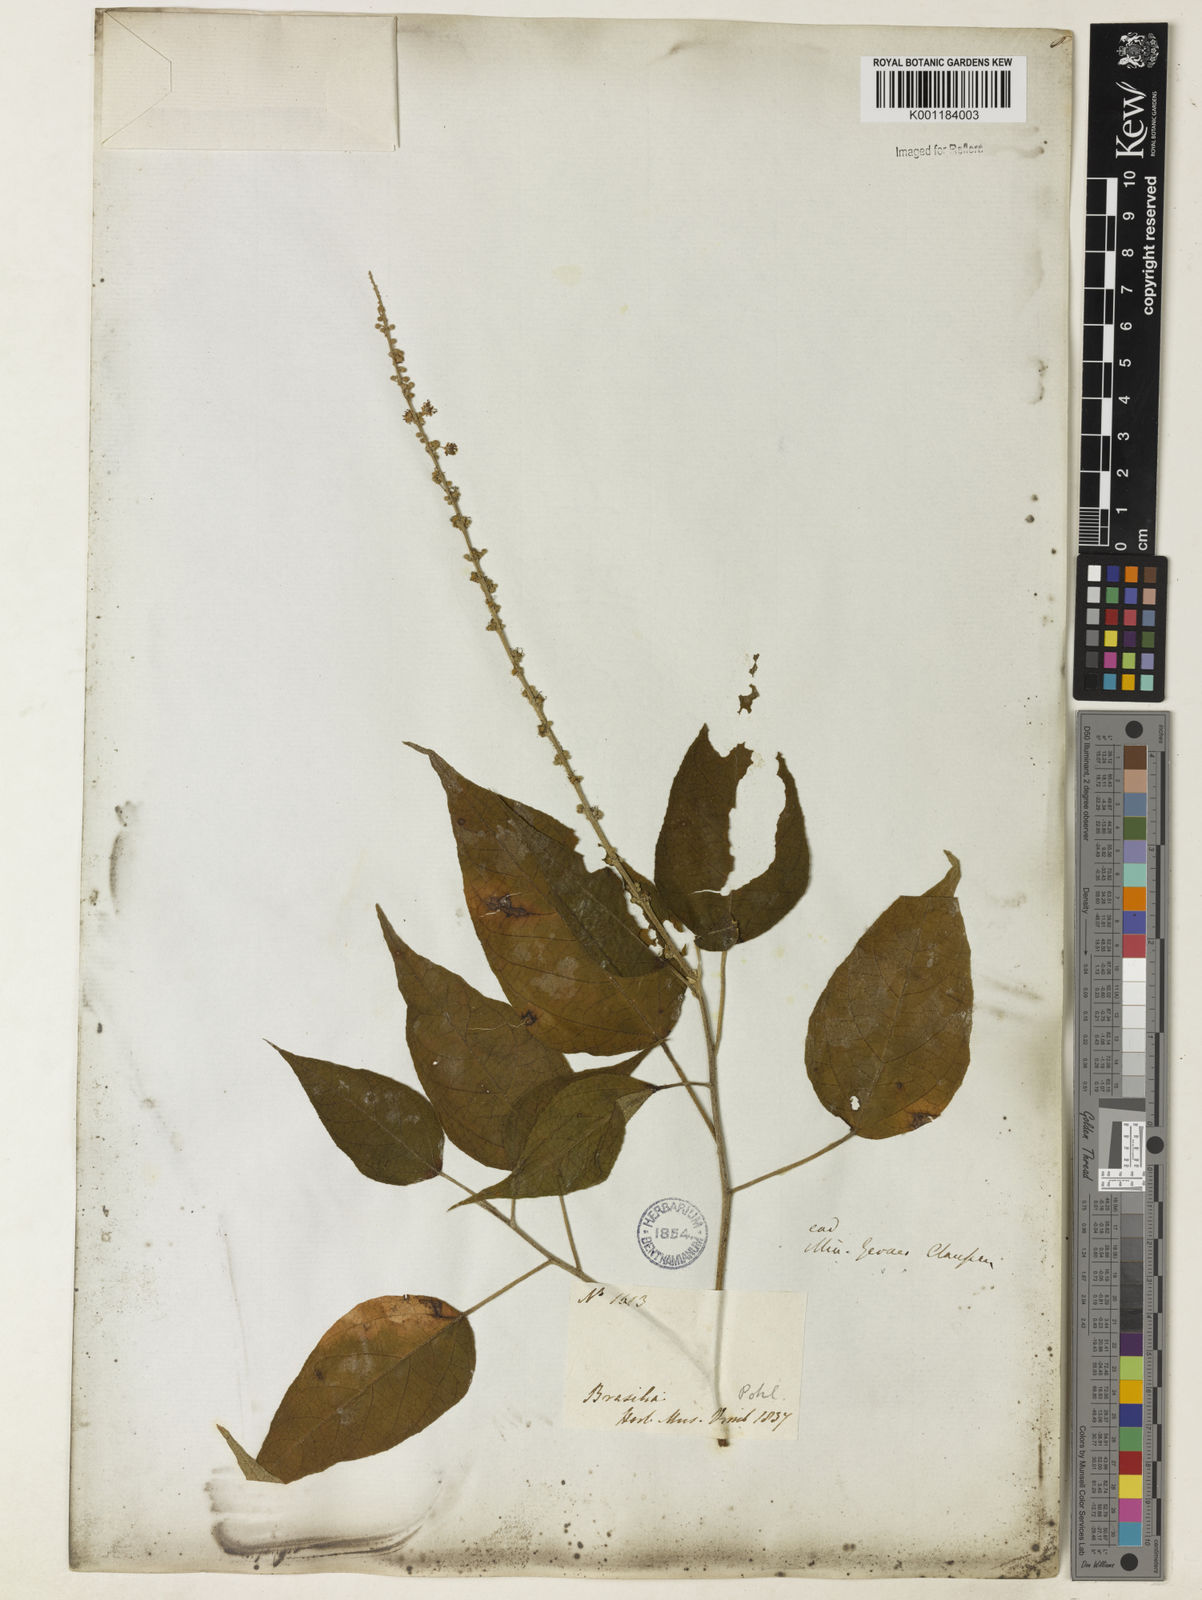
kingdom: Plantae
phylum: Tracheophyta
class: Magnoliopsida
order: Malpighiales
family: Euphorbiaceae
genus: Croton
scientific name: Croton gracilipes
